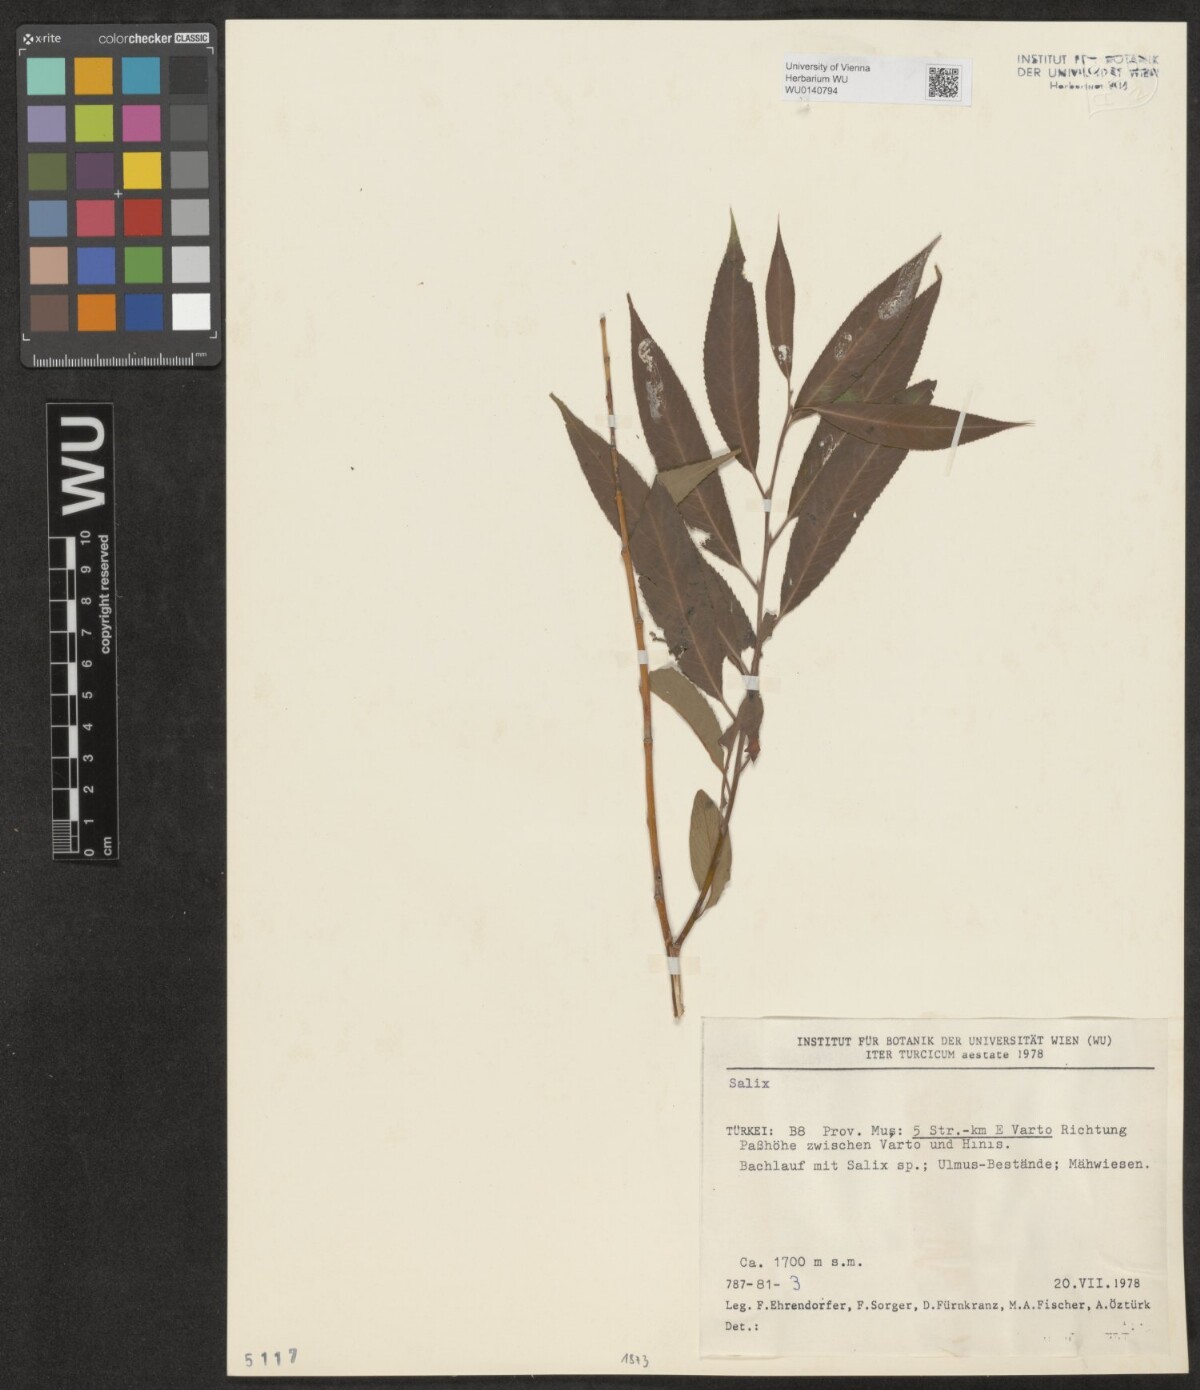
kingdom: Plantae
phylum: Tracheophyta
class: Magnoliopsida
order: Malpighiales
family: Salicaceae
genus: Salix
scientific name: Salix
